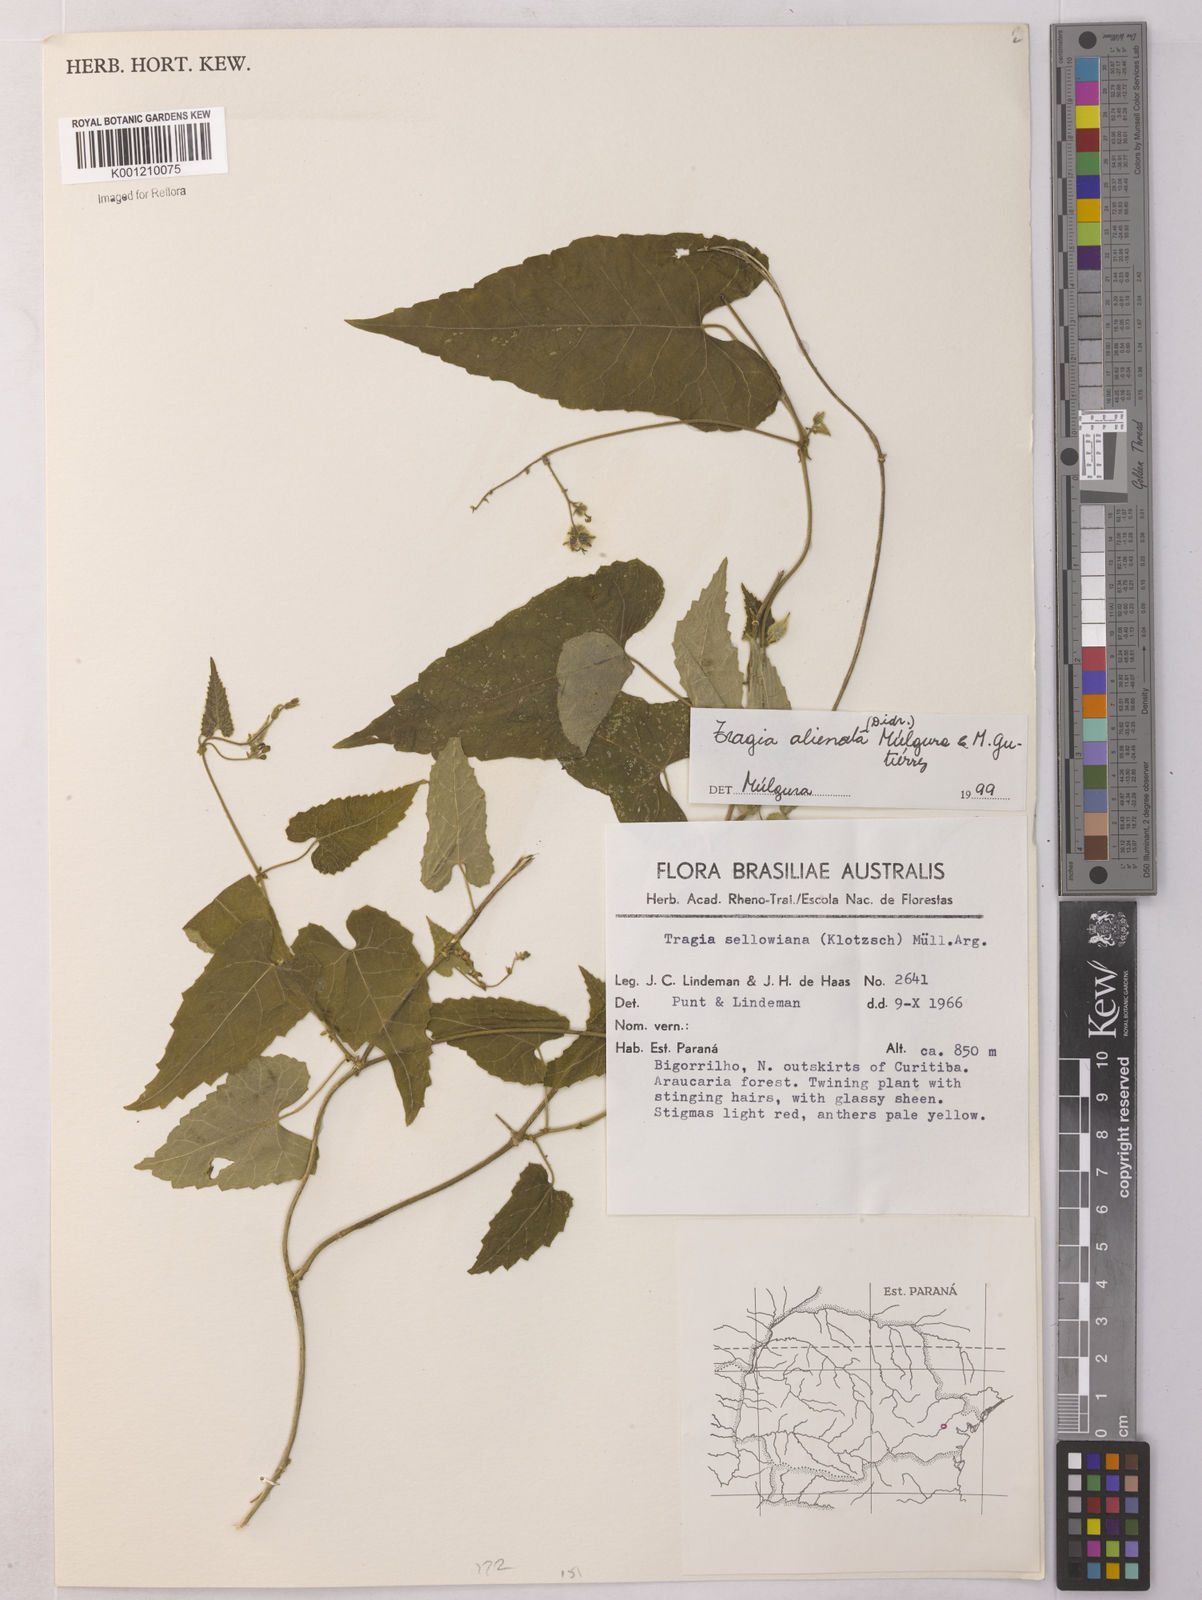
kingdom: Plantae
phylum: Tracheophyta
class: Magnoliopsida
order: Malpighiales
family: Euphorbiaceae
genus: Bia
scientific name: Bia alienata
